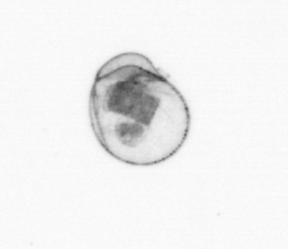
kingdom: Chromista
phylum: Myzozoa
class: Dinophyceae
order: Noctilucales
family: Noctilucaceae
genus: Noctiluca
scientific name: Noctiluca scintillans
